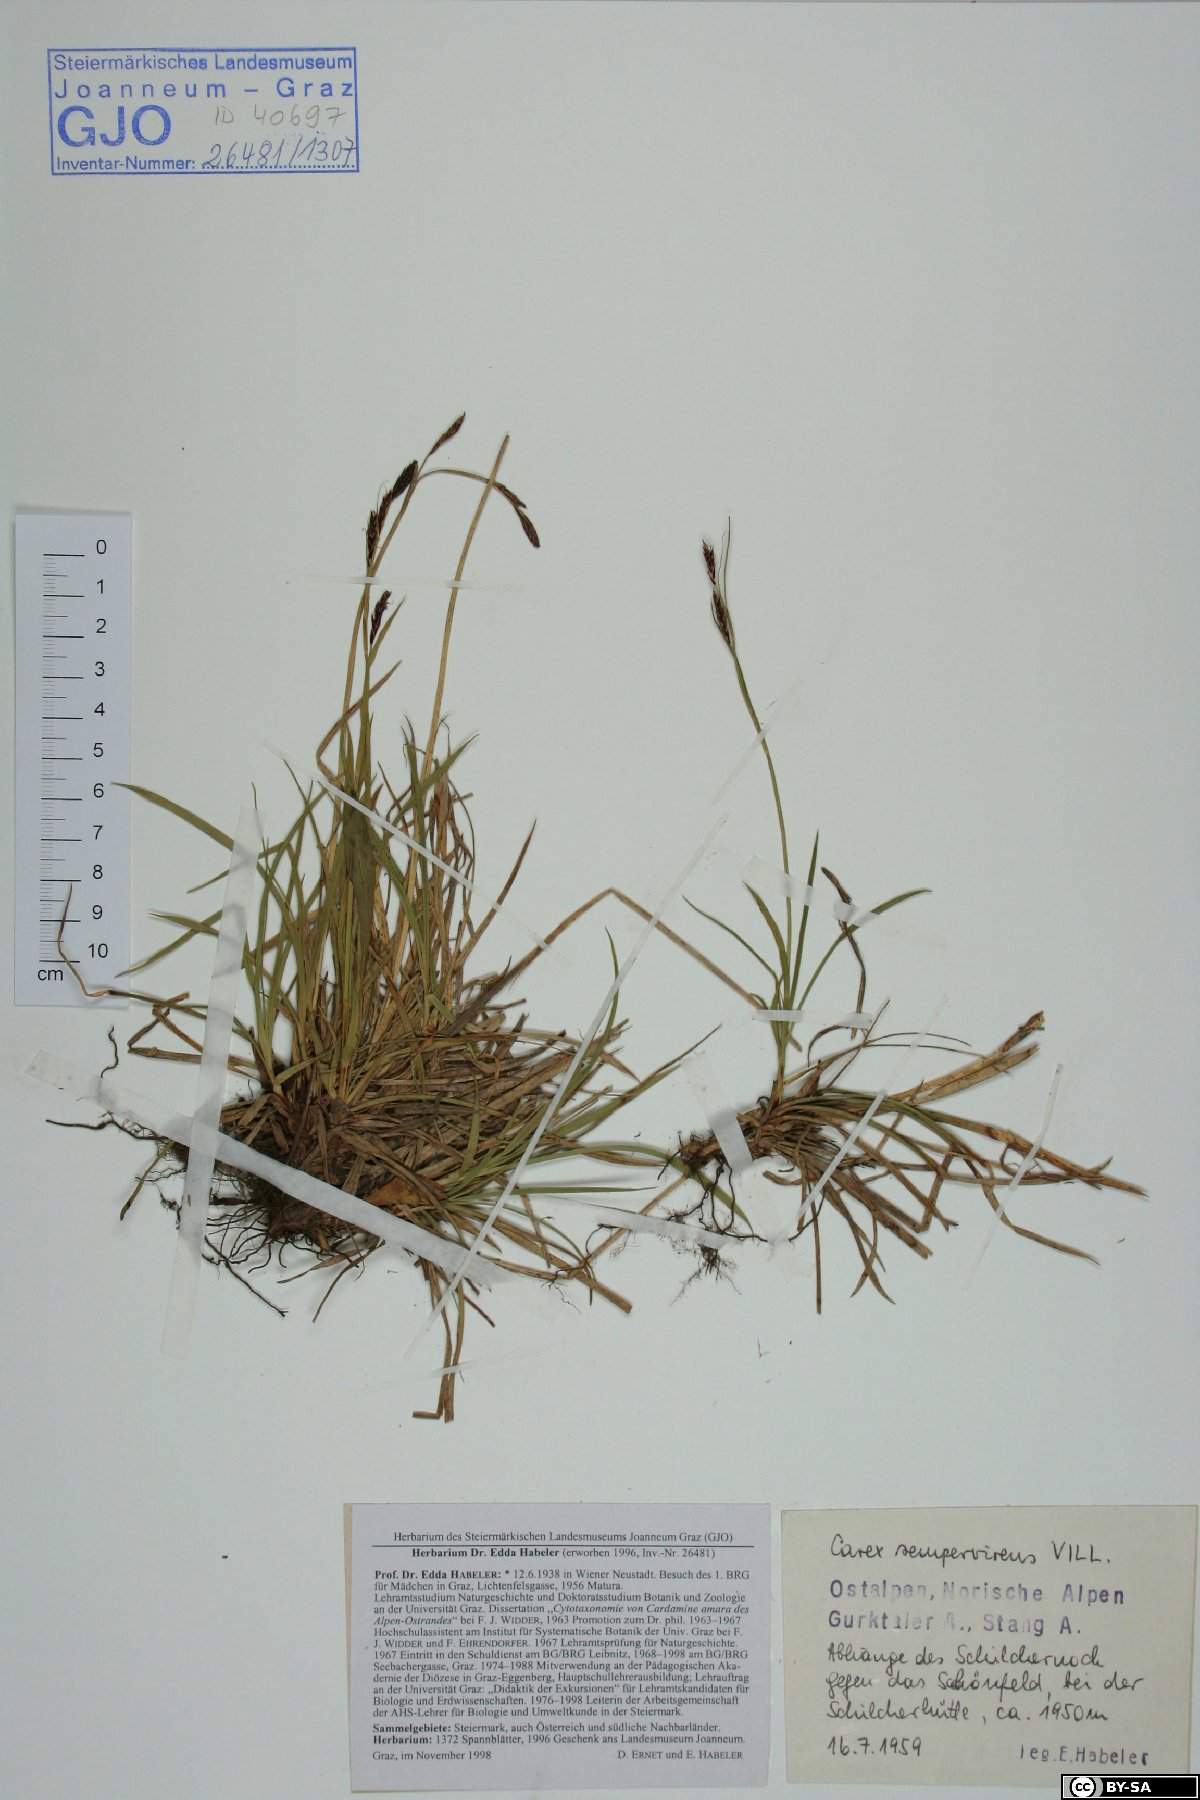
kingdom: Plantae
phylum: Tracheophyta
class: Liliopsida
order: Poales
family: Cyperaceae
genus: Carex
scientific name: Carex sempervirens
